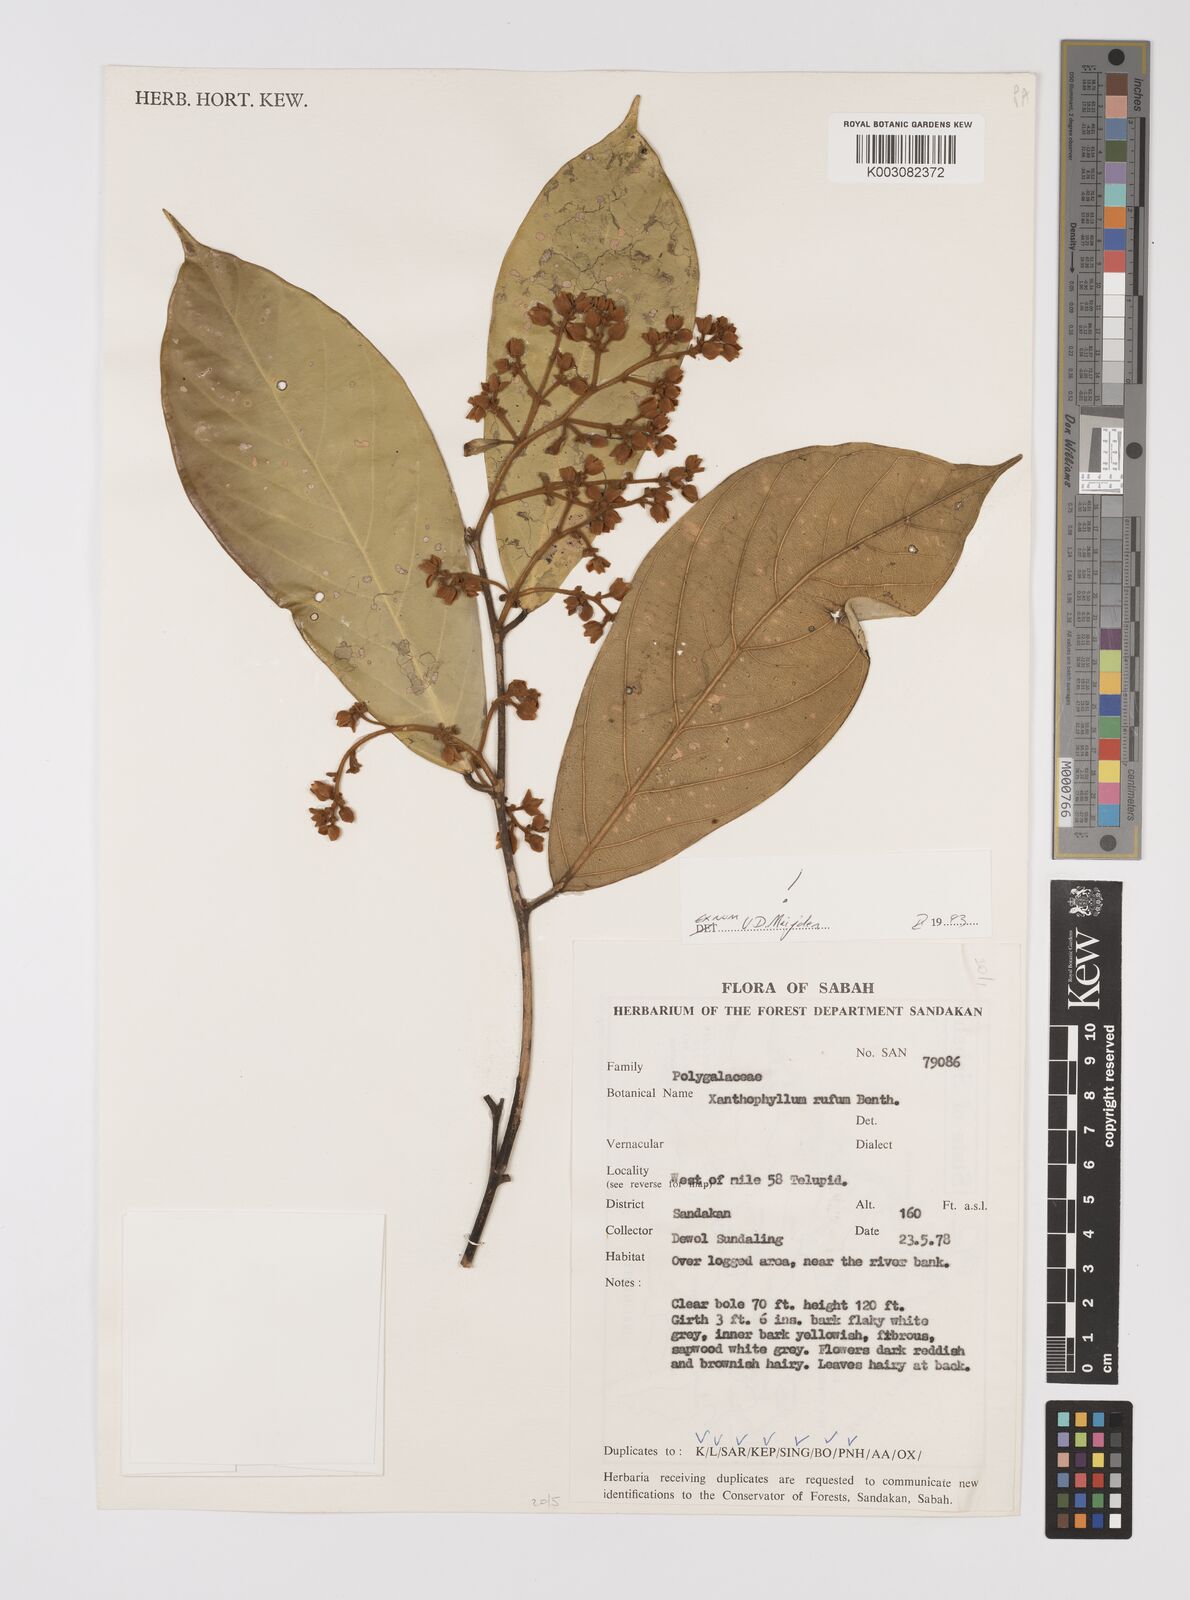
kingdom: Plantae
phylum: Tracheophyta
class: Magnoliopsida
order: Fabales
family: Polygalaceae
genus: Xanthophyllum
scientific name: Xanthophyllum rufum
